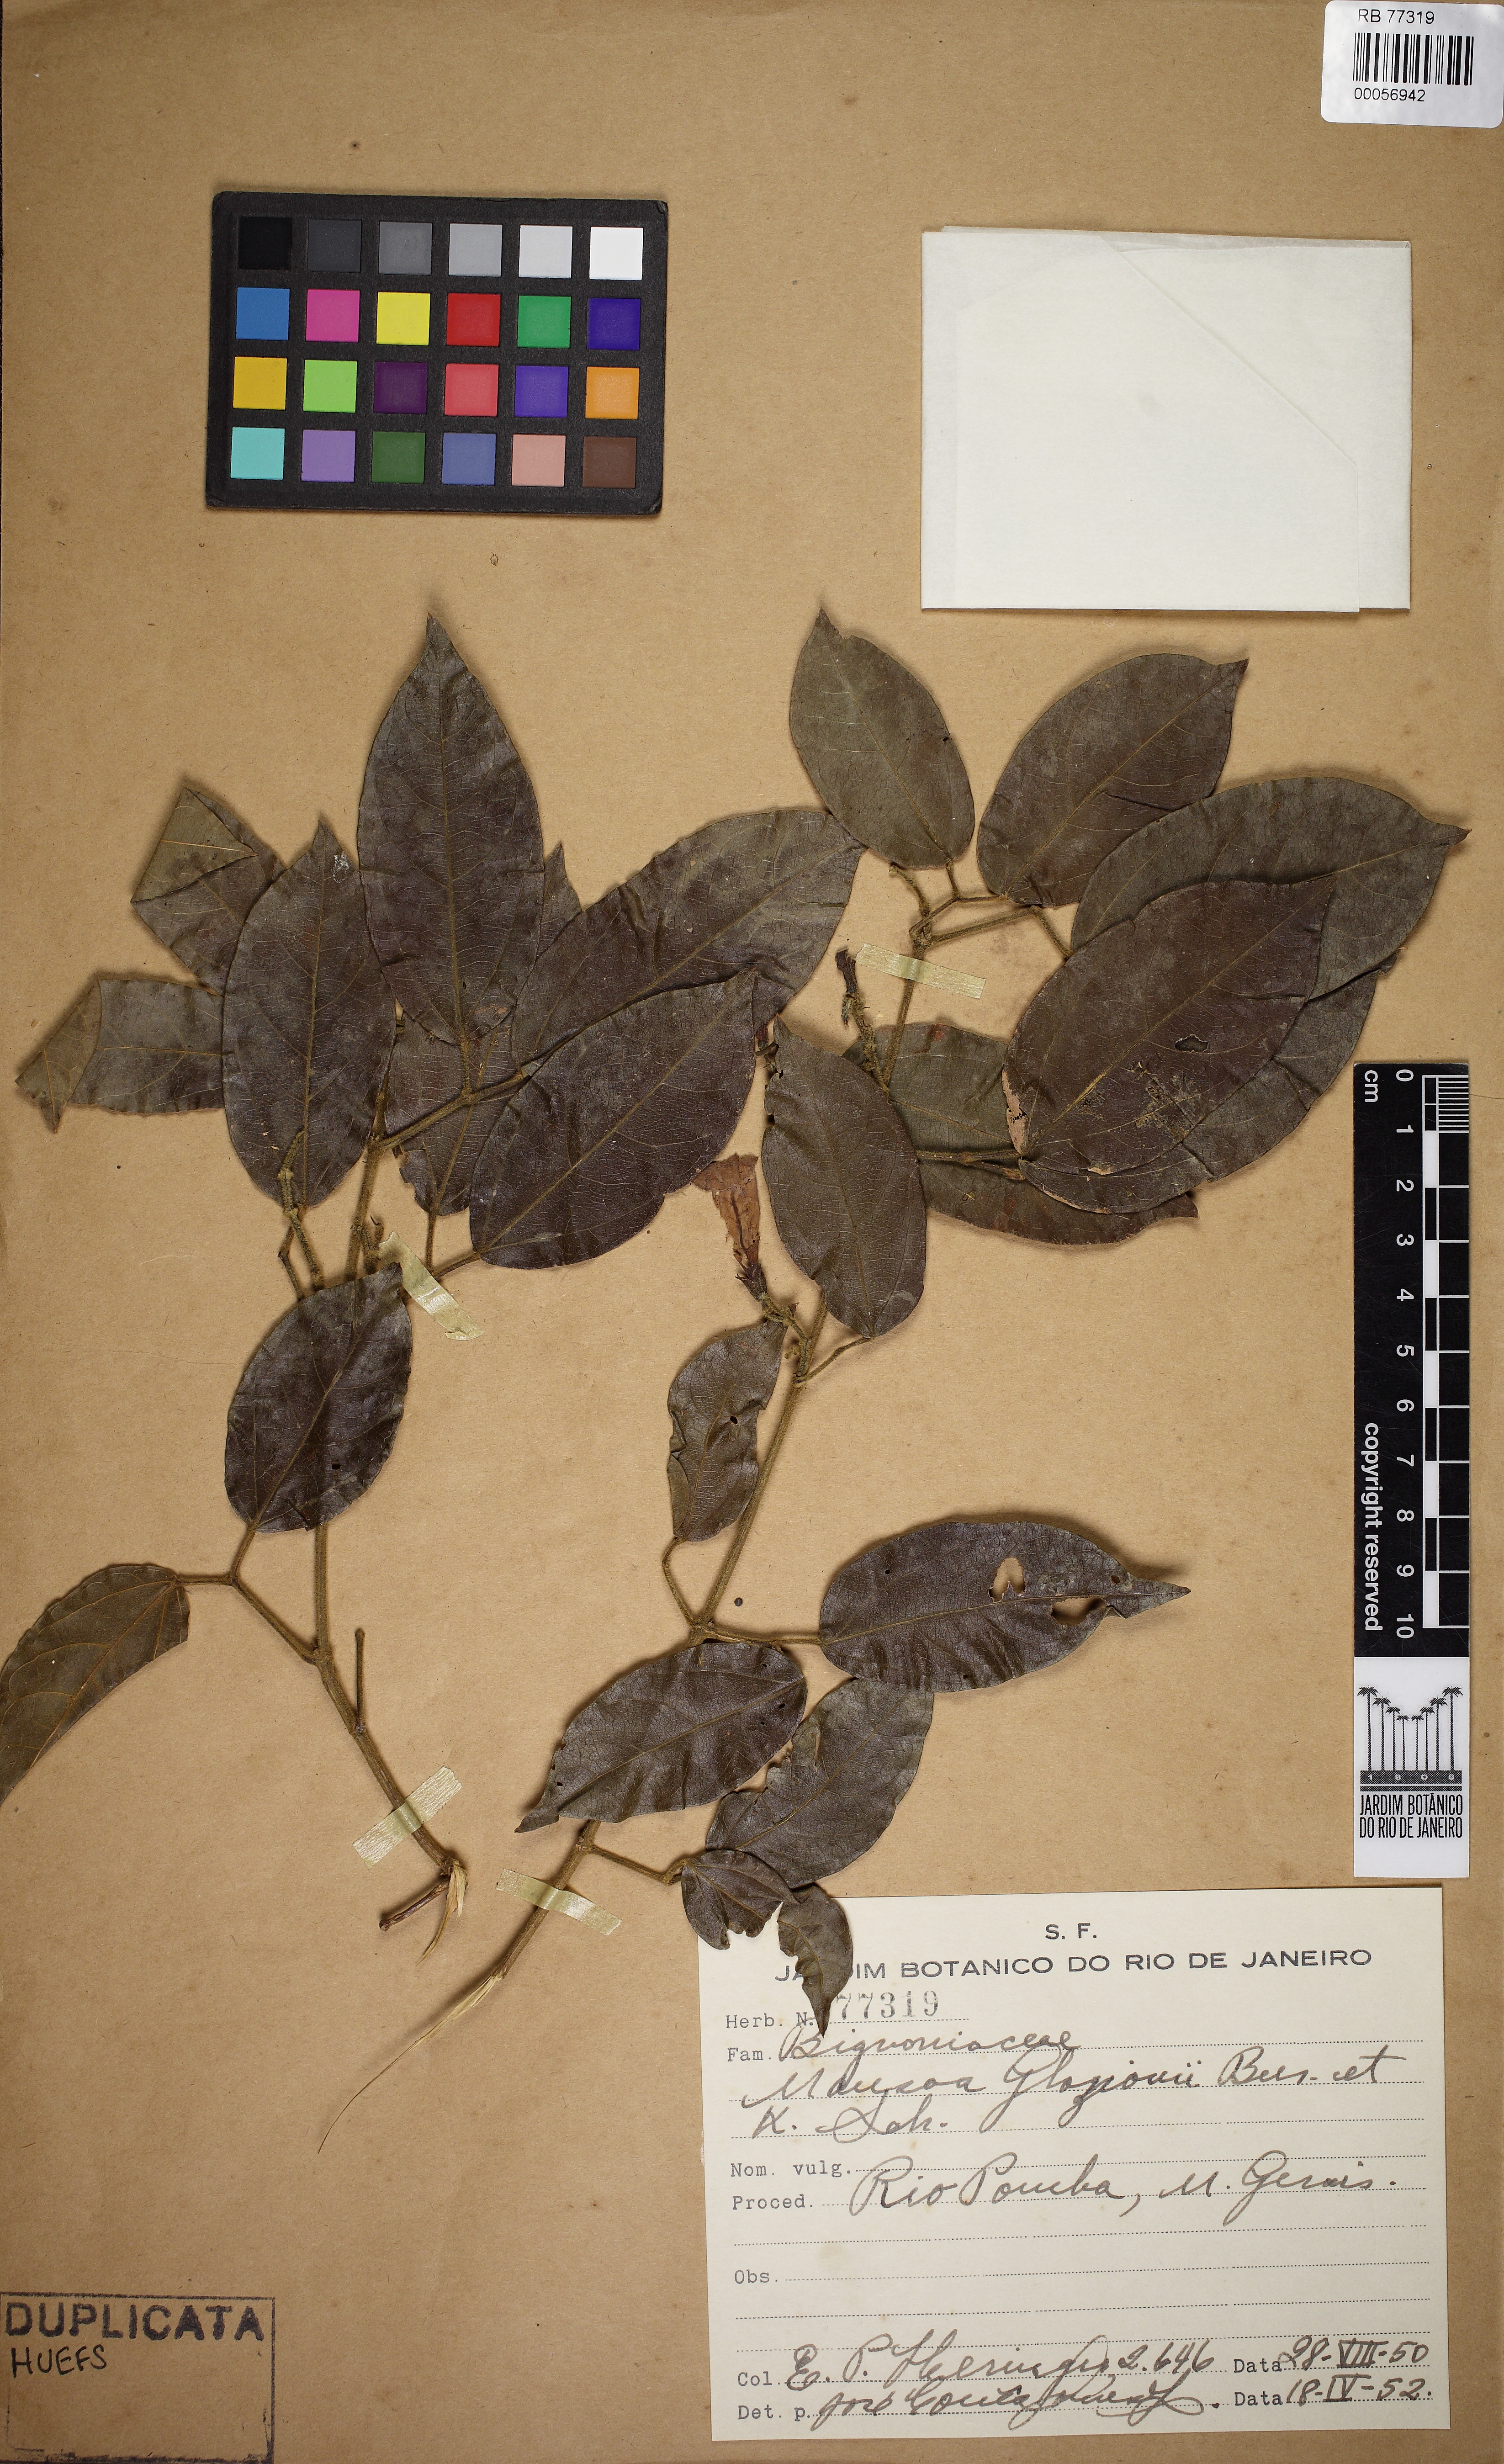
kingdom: Plantae
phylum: Tracheophyta
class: Magnoliopsida
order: Lamiales
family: Bignoniaceae
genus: Mansoa
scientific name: Mansoa glaziovii
